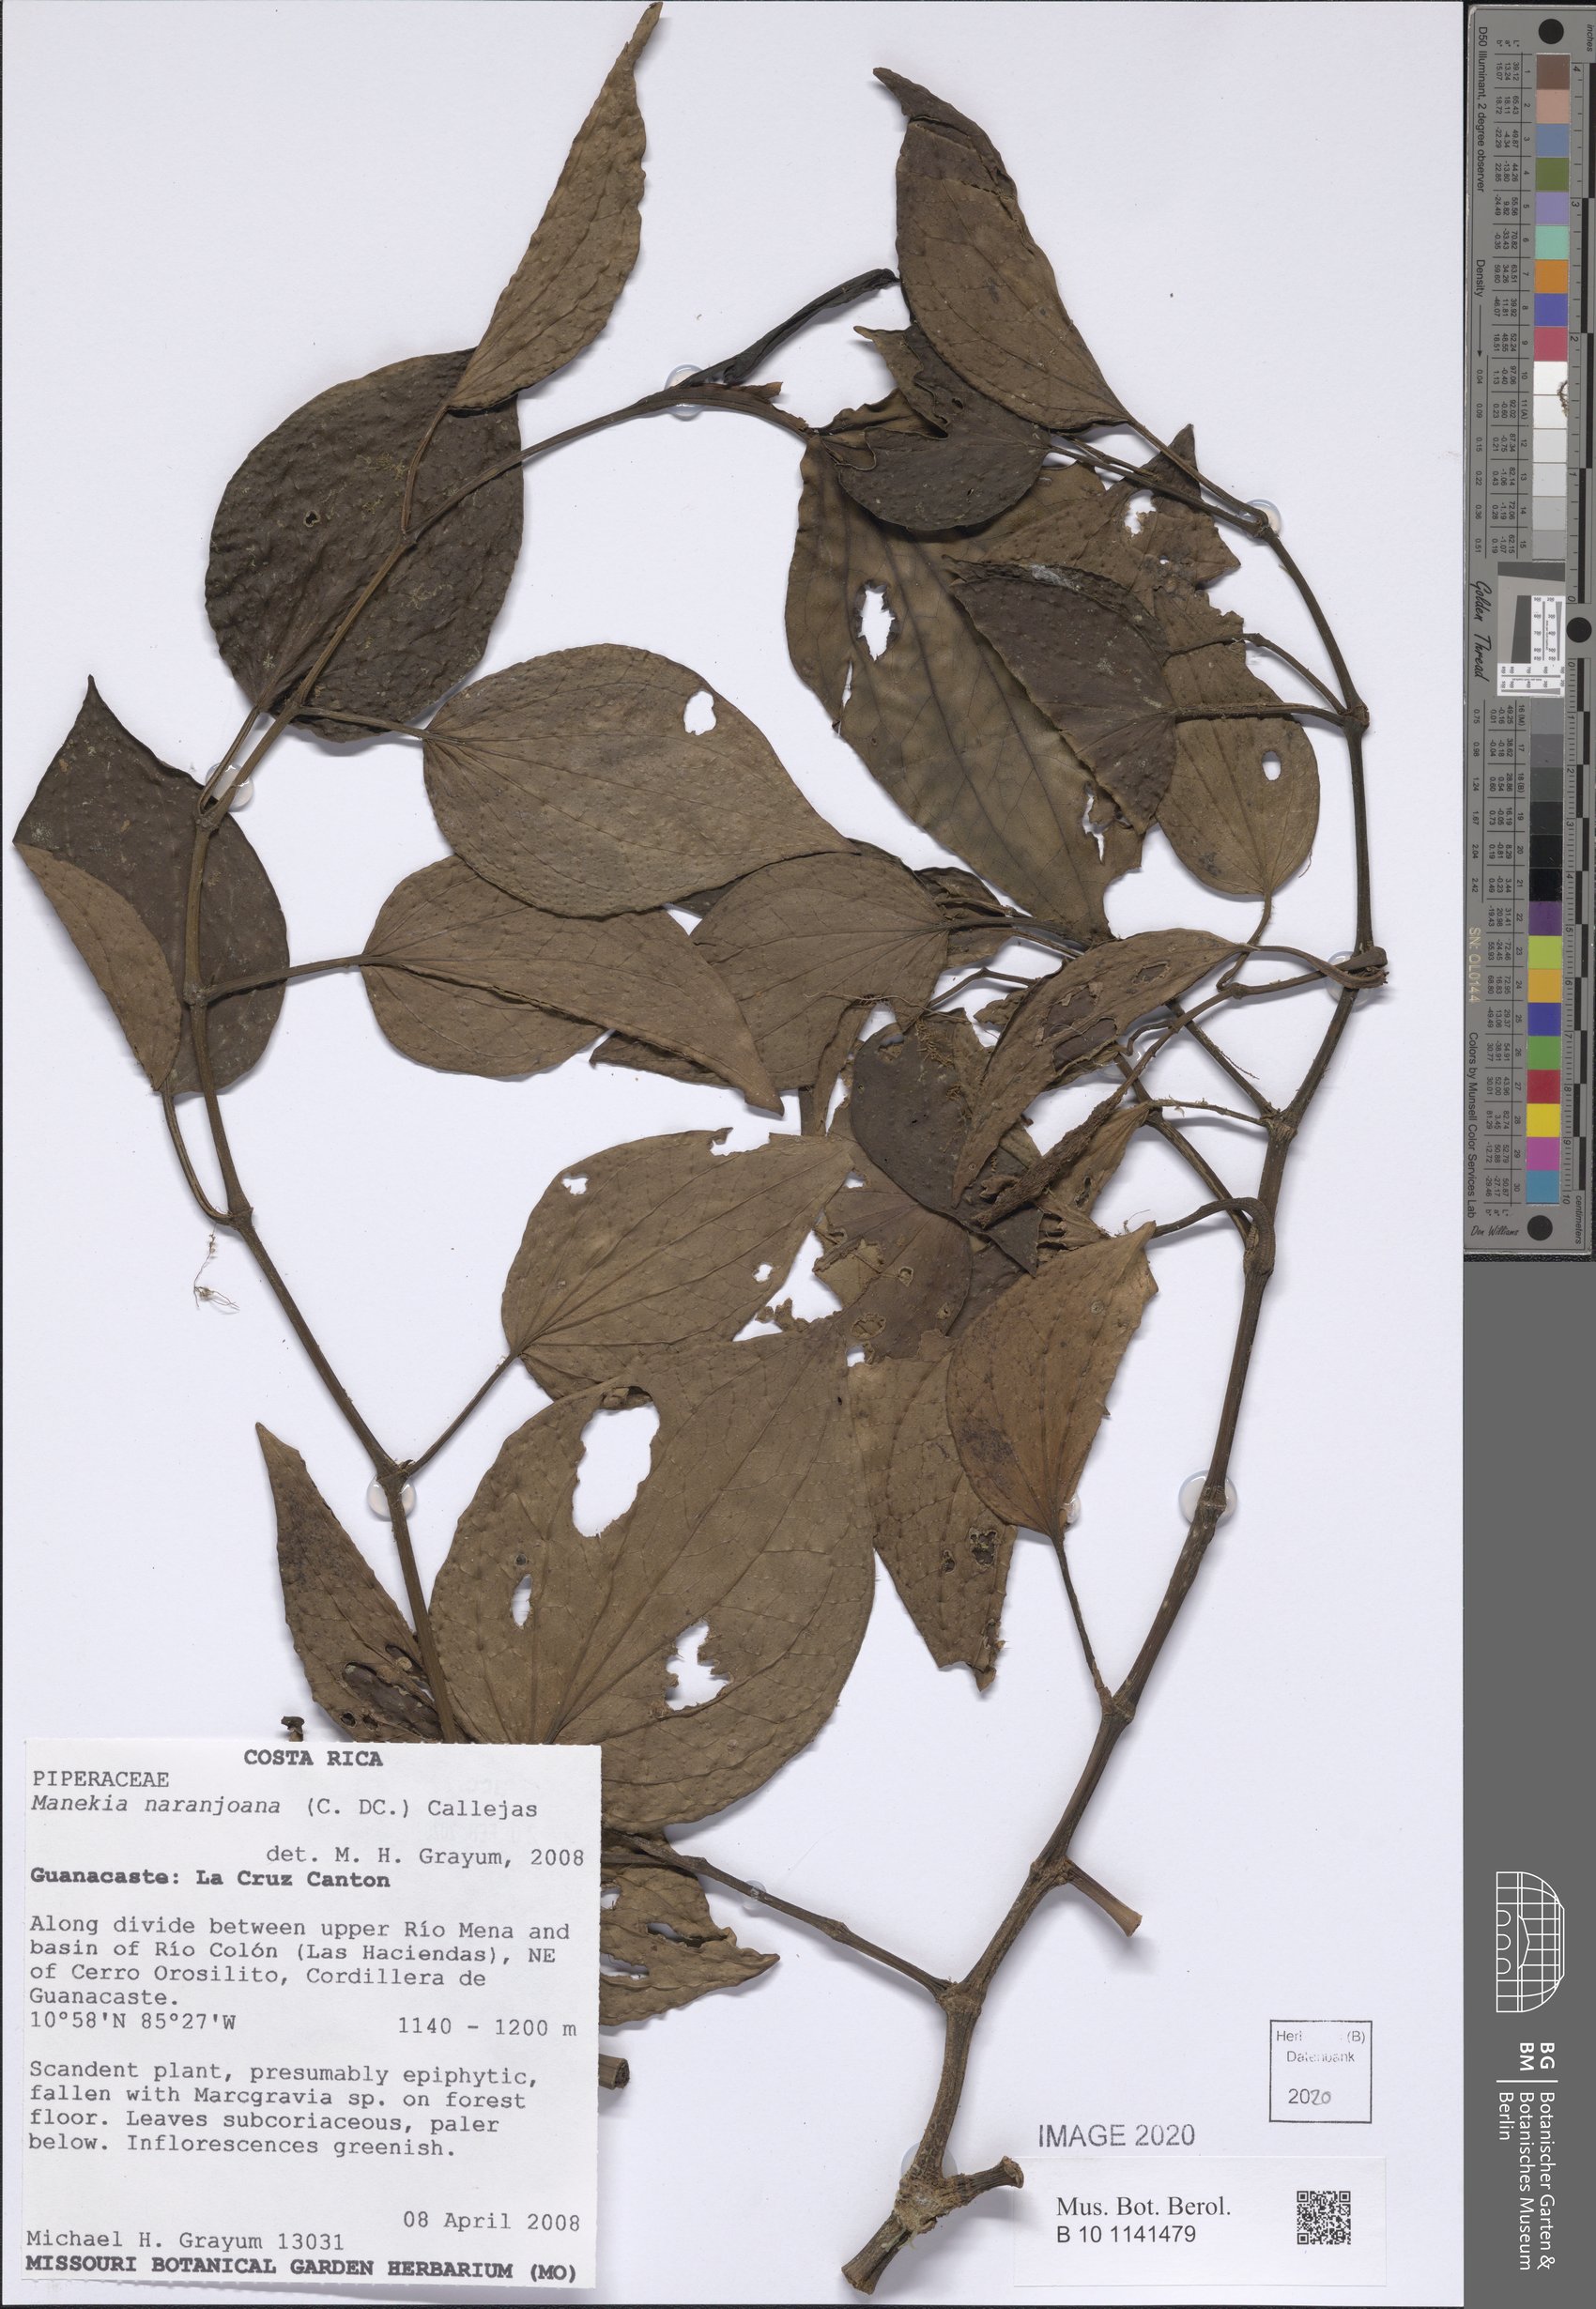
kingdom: Plantae
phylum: Tracheophyta
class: Magnoliopsida
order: Piperales
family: Piperaceae
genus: Manekia
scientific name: Manekia naranjoana
